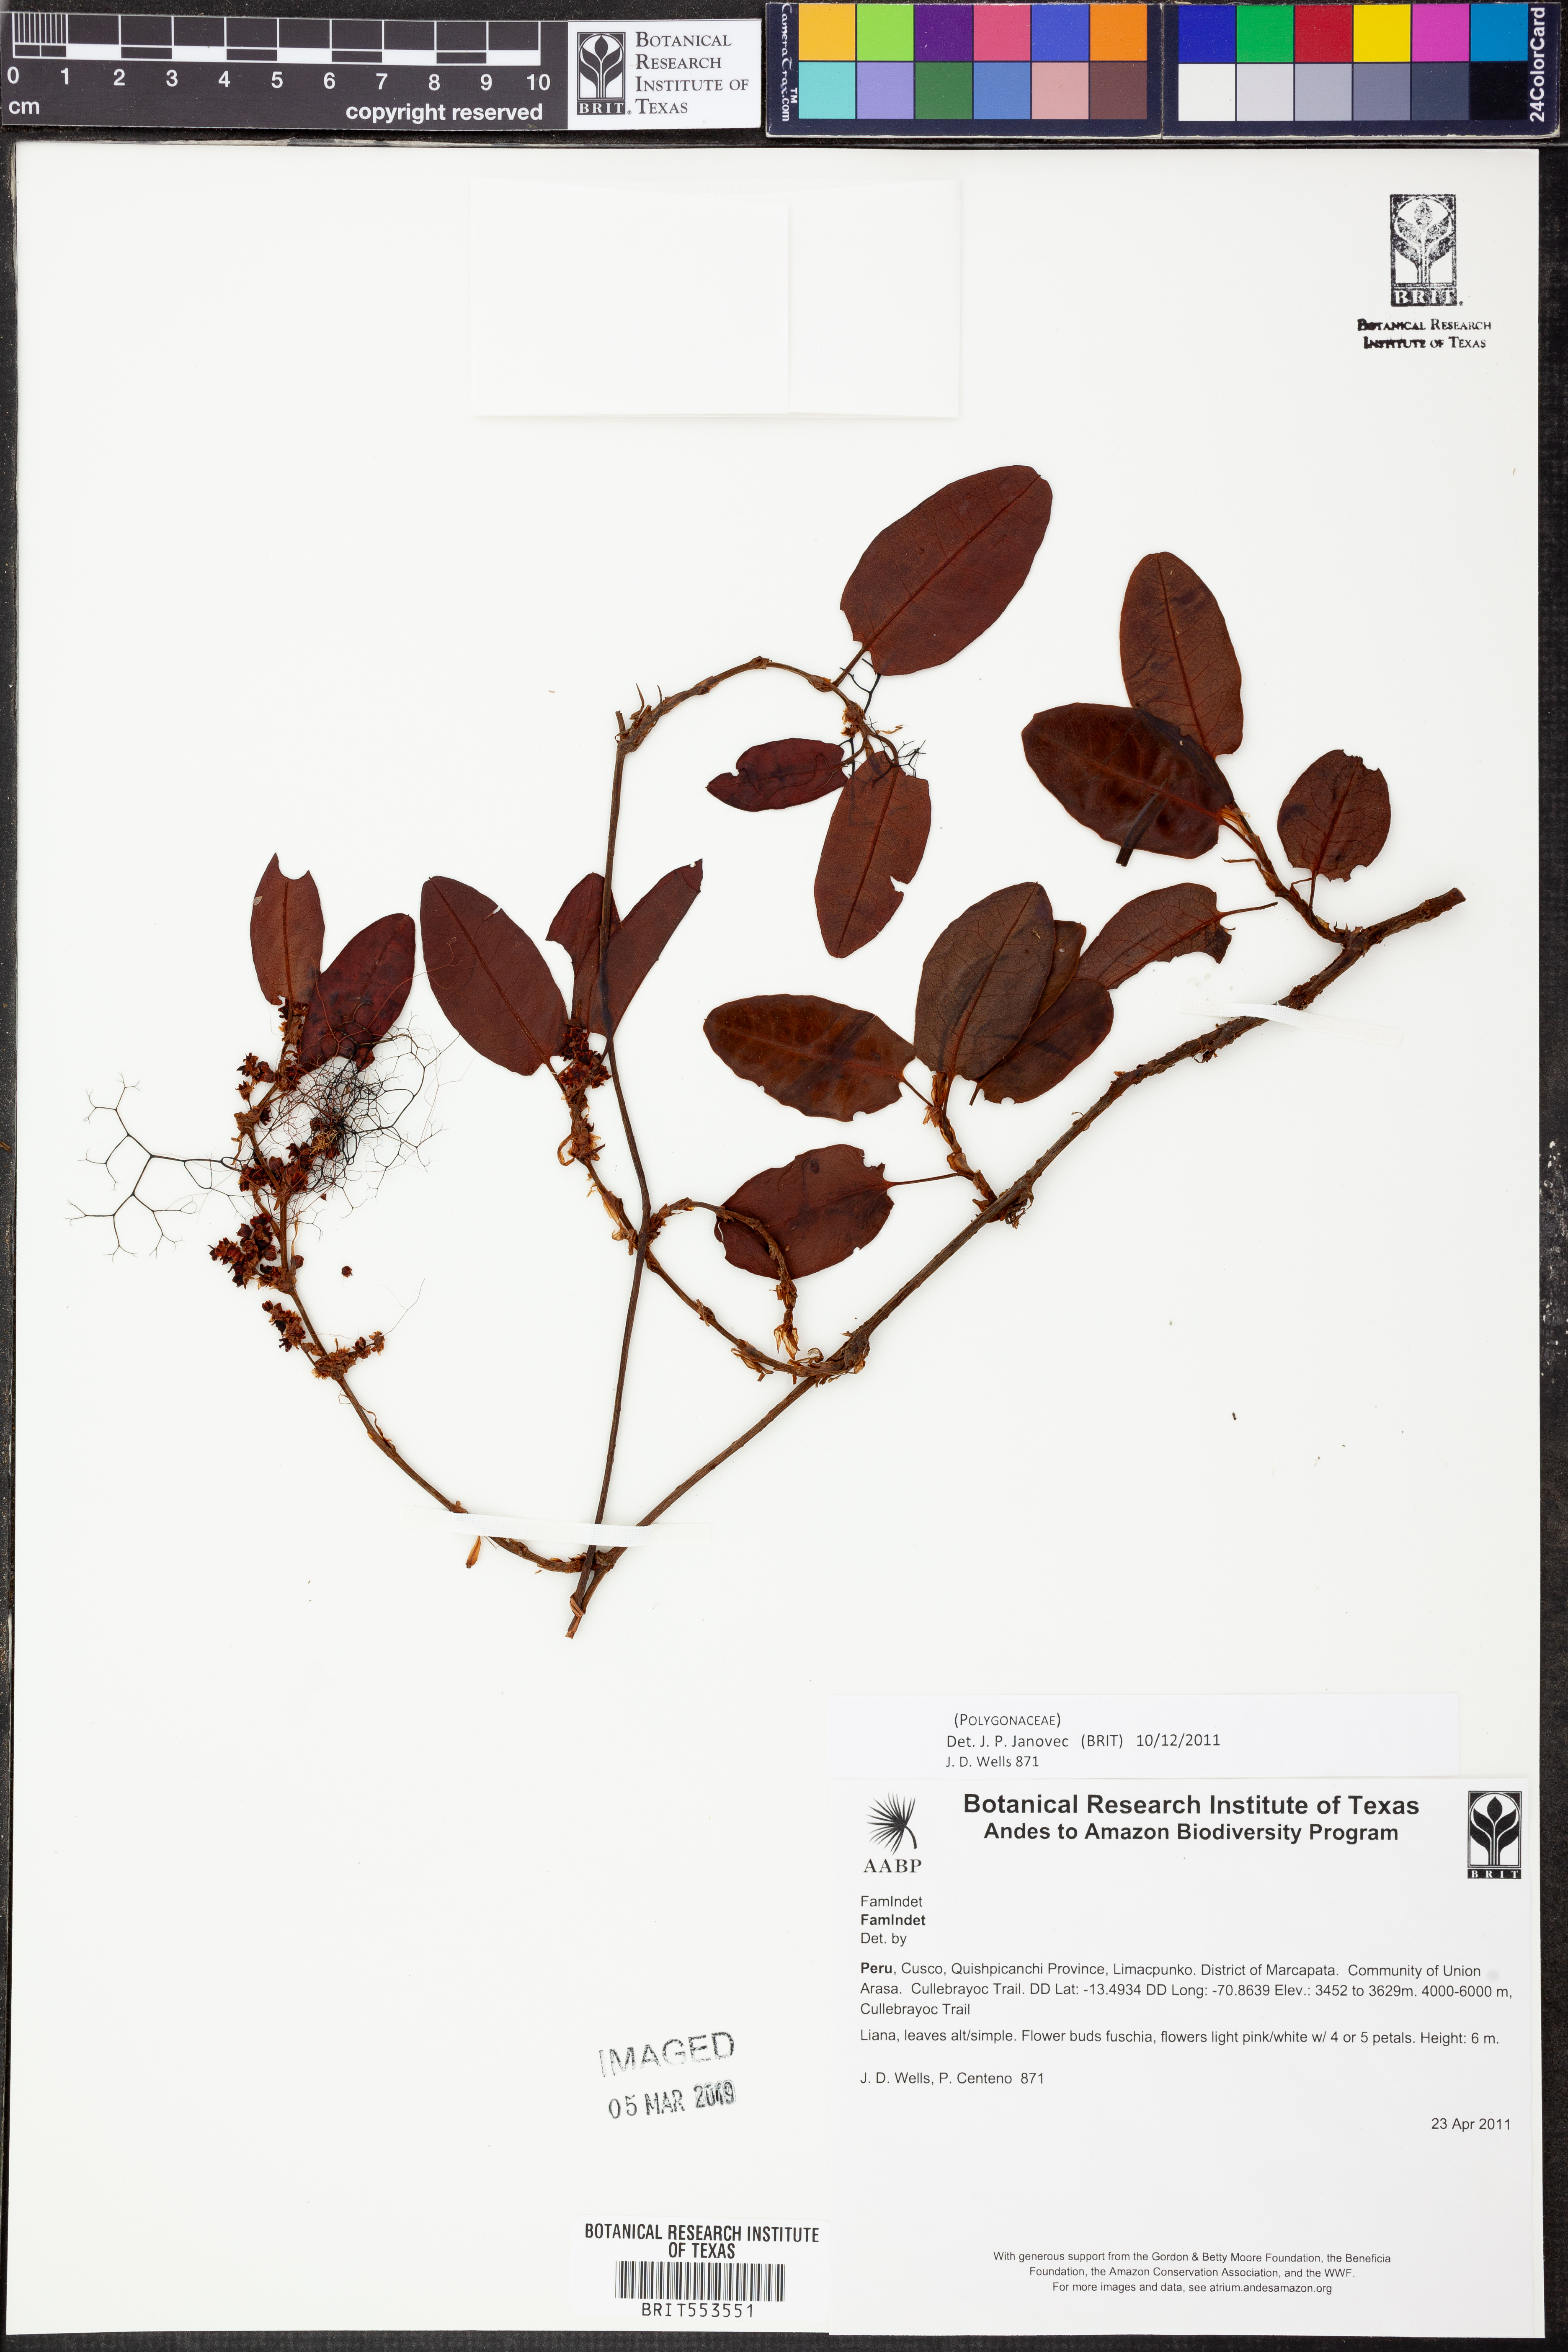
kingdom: Plantae
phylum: Tracheophyta
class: Magnoliopsida
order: Caryophyllales
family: Polygonaceae
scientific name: Polygonaceae
